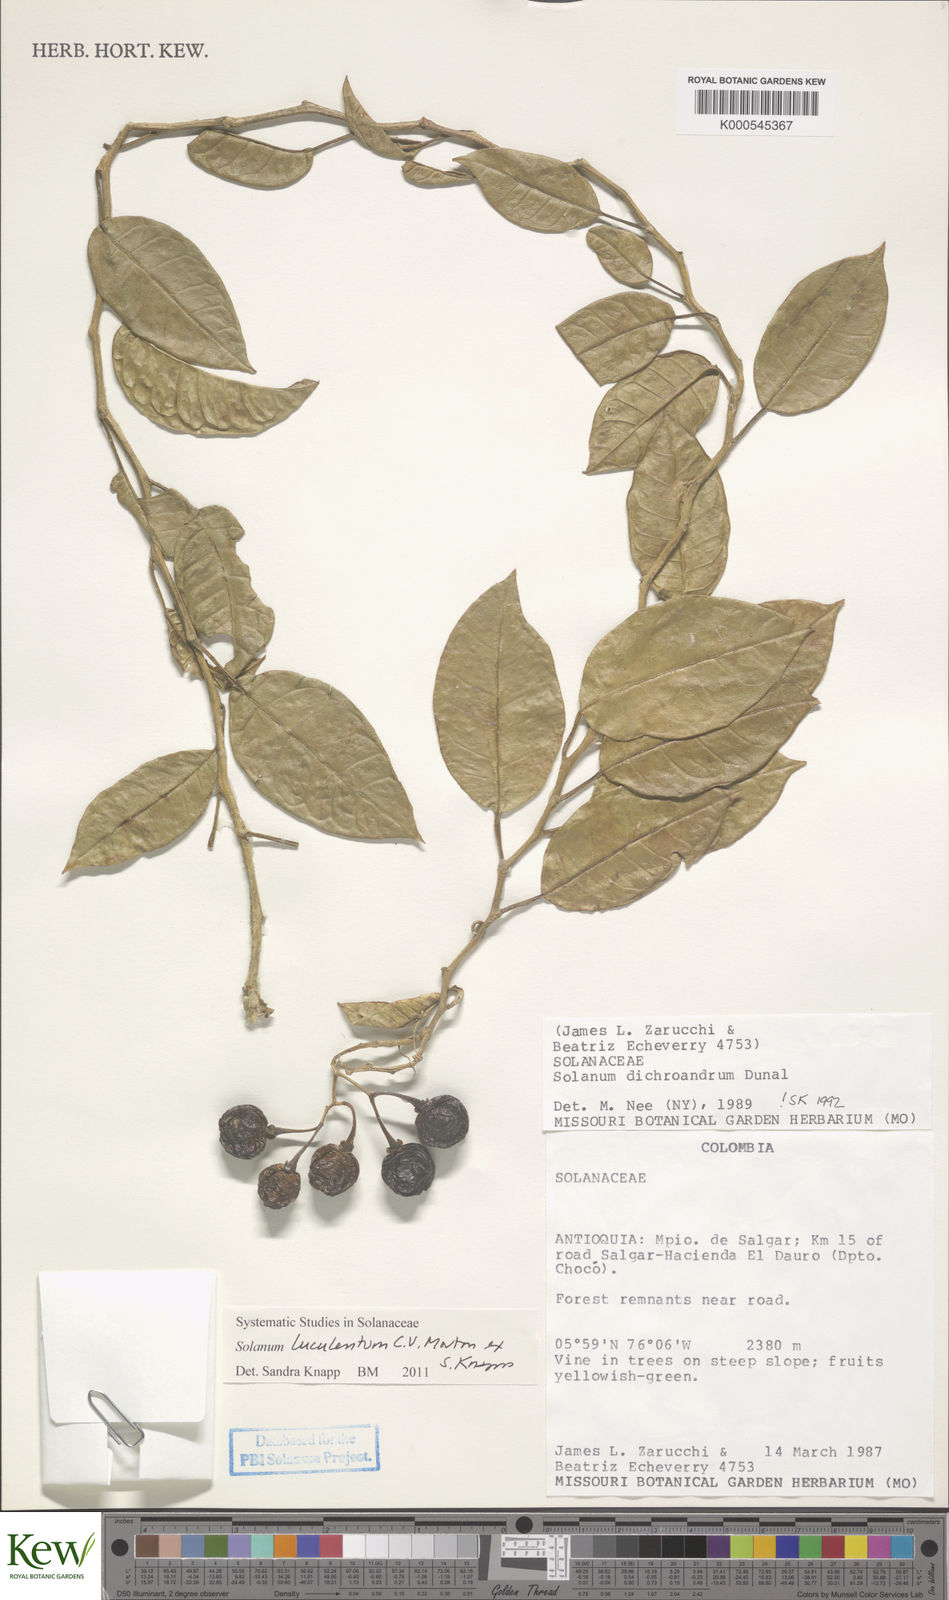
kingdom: Plantae
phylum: Tracheophyta
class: Magnoliopsida
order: Solanales
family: Solanaceae
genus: Solanum
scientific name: Solanum luculentum
